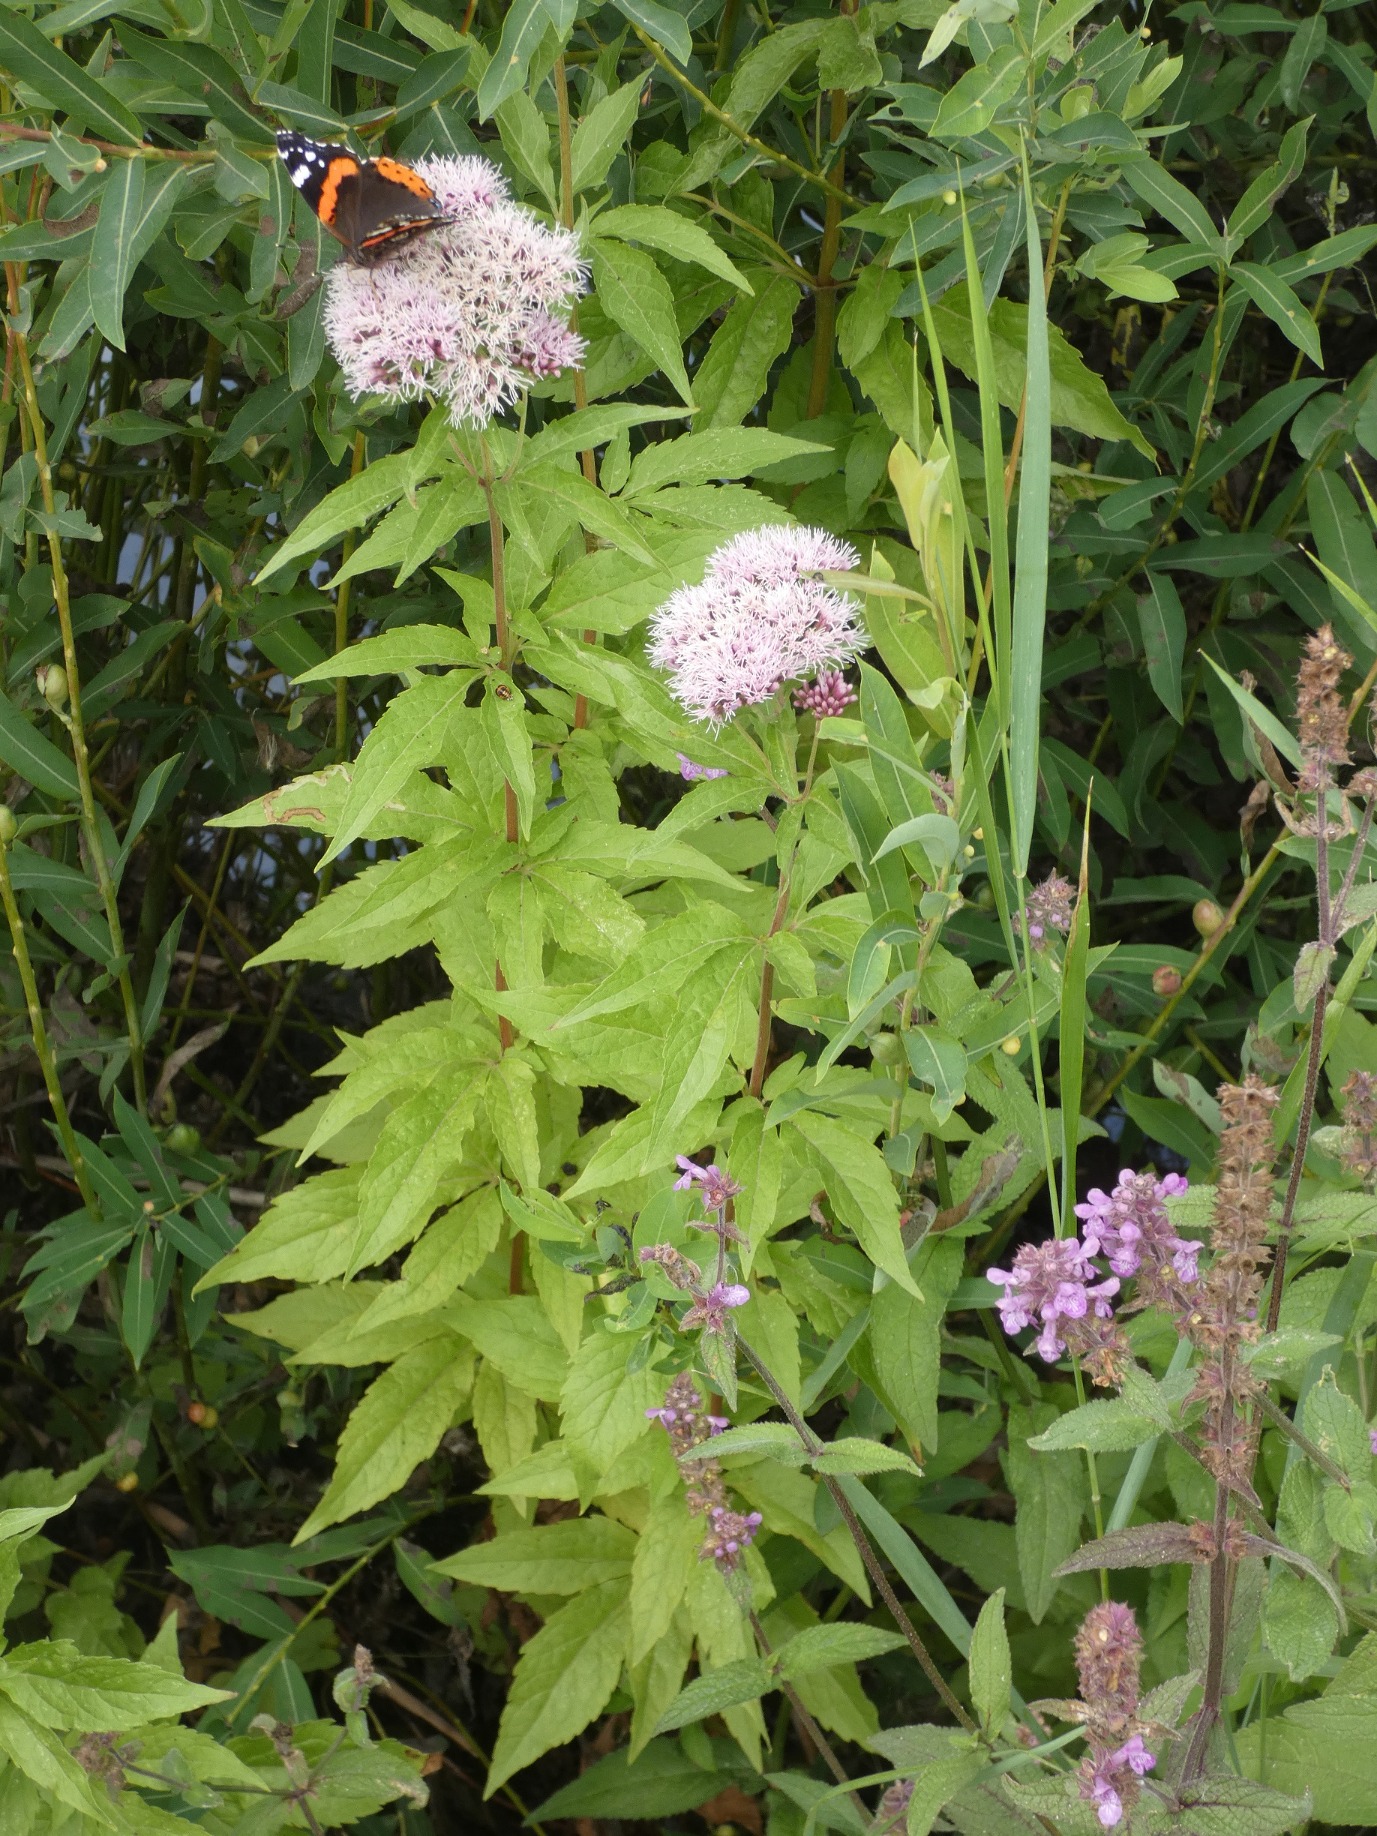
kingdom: Plantae
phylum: Tracheophyta
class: Magnoliopsida
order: Asterales
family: Asteraceae
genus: Eupatorium
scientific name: Eupatorium cannabinum
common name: Hjortetrøst
